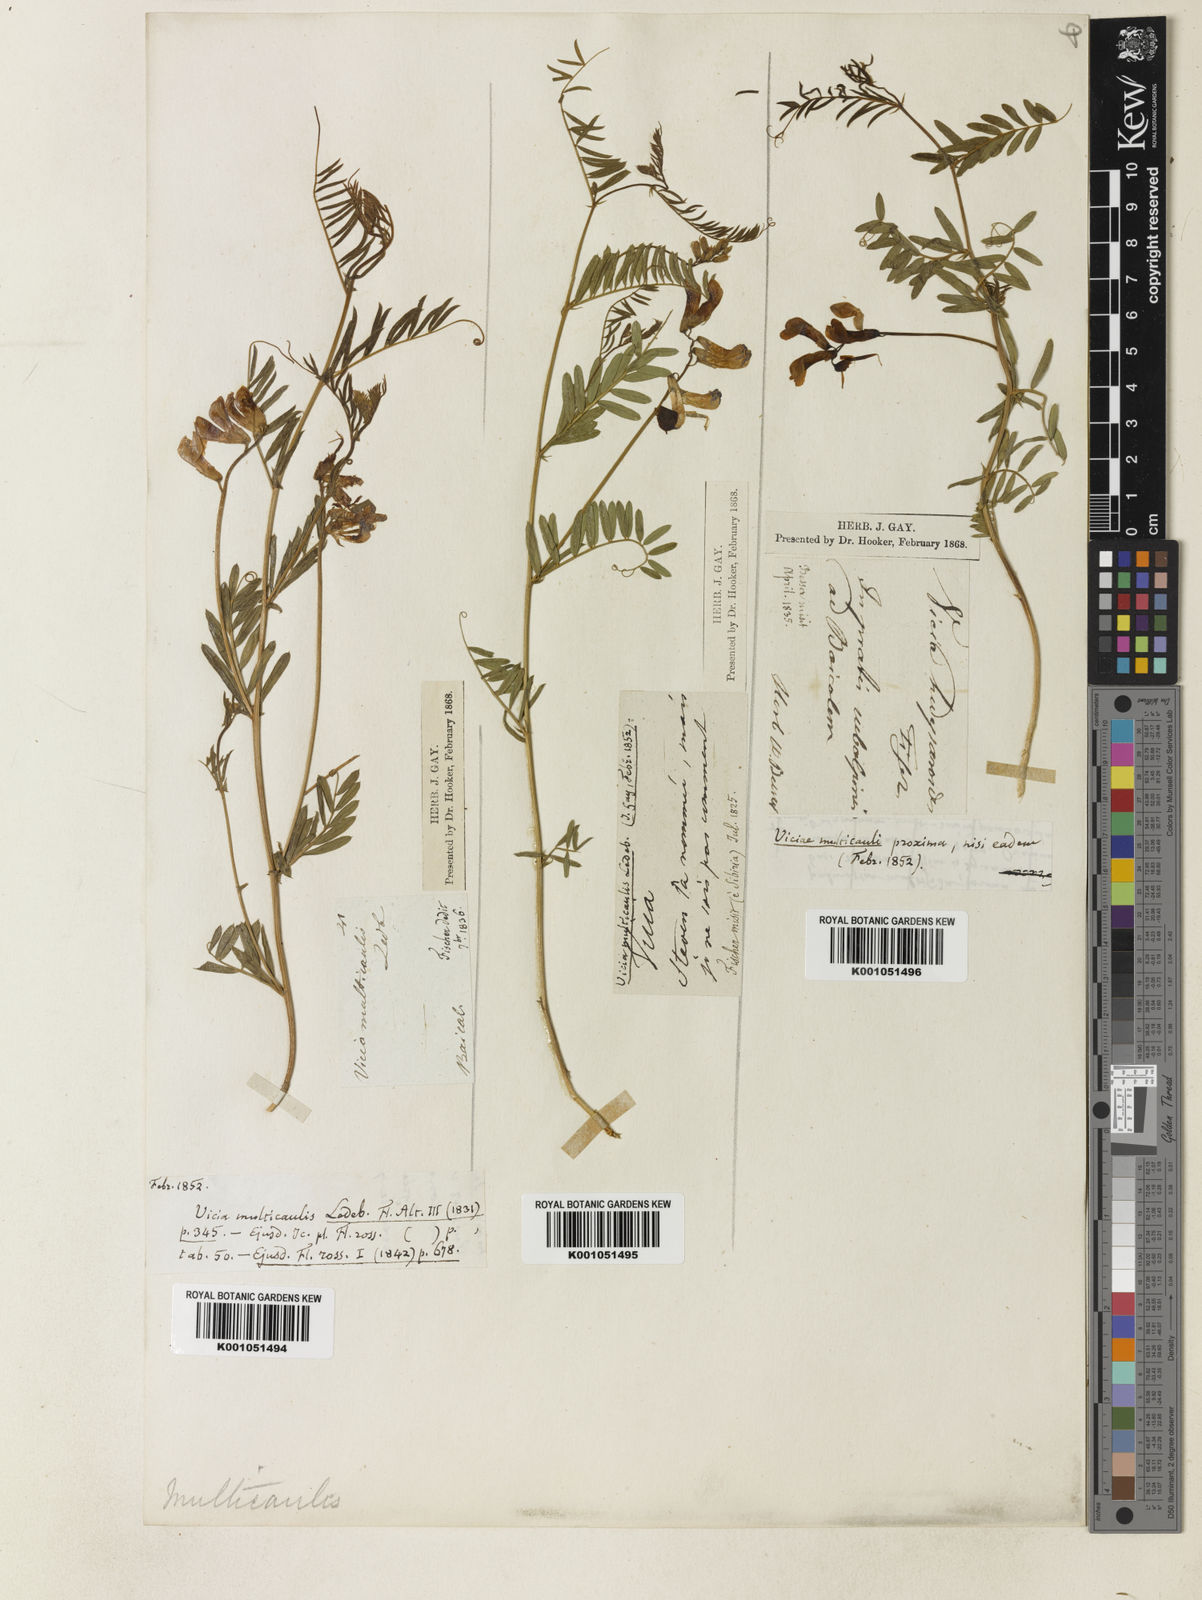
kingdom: Plantae
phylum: Tracheophyta
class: Magnoliopsida
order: Fabales
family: Fabaceae
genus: Vicia
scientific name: Vicia multicaulis
